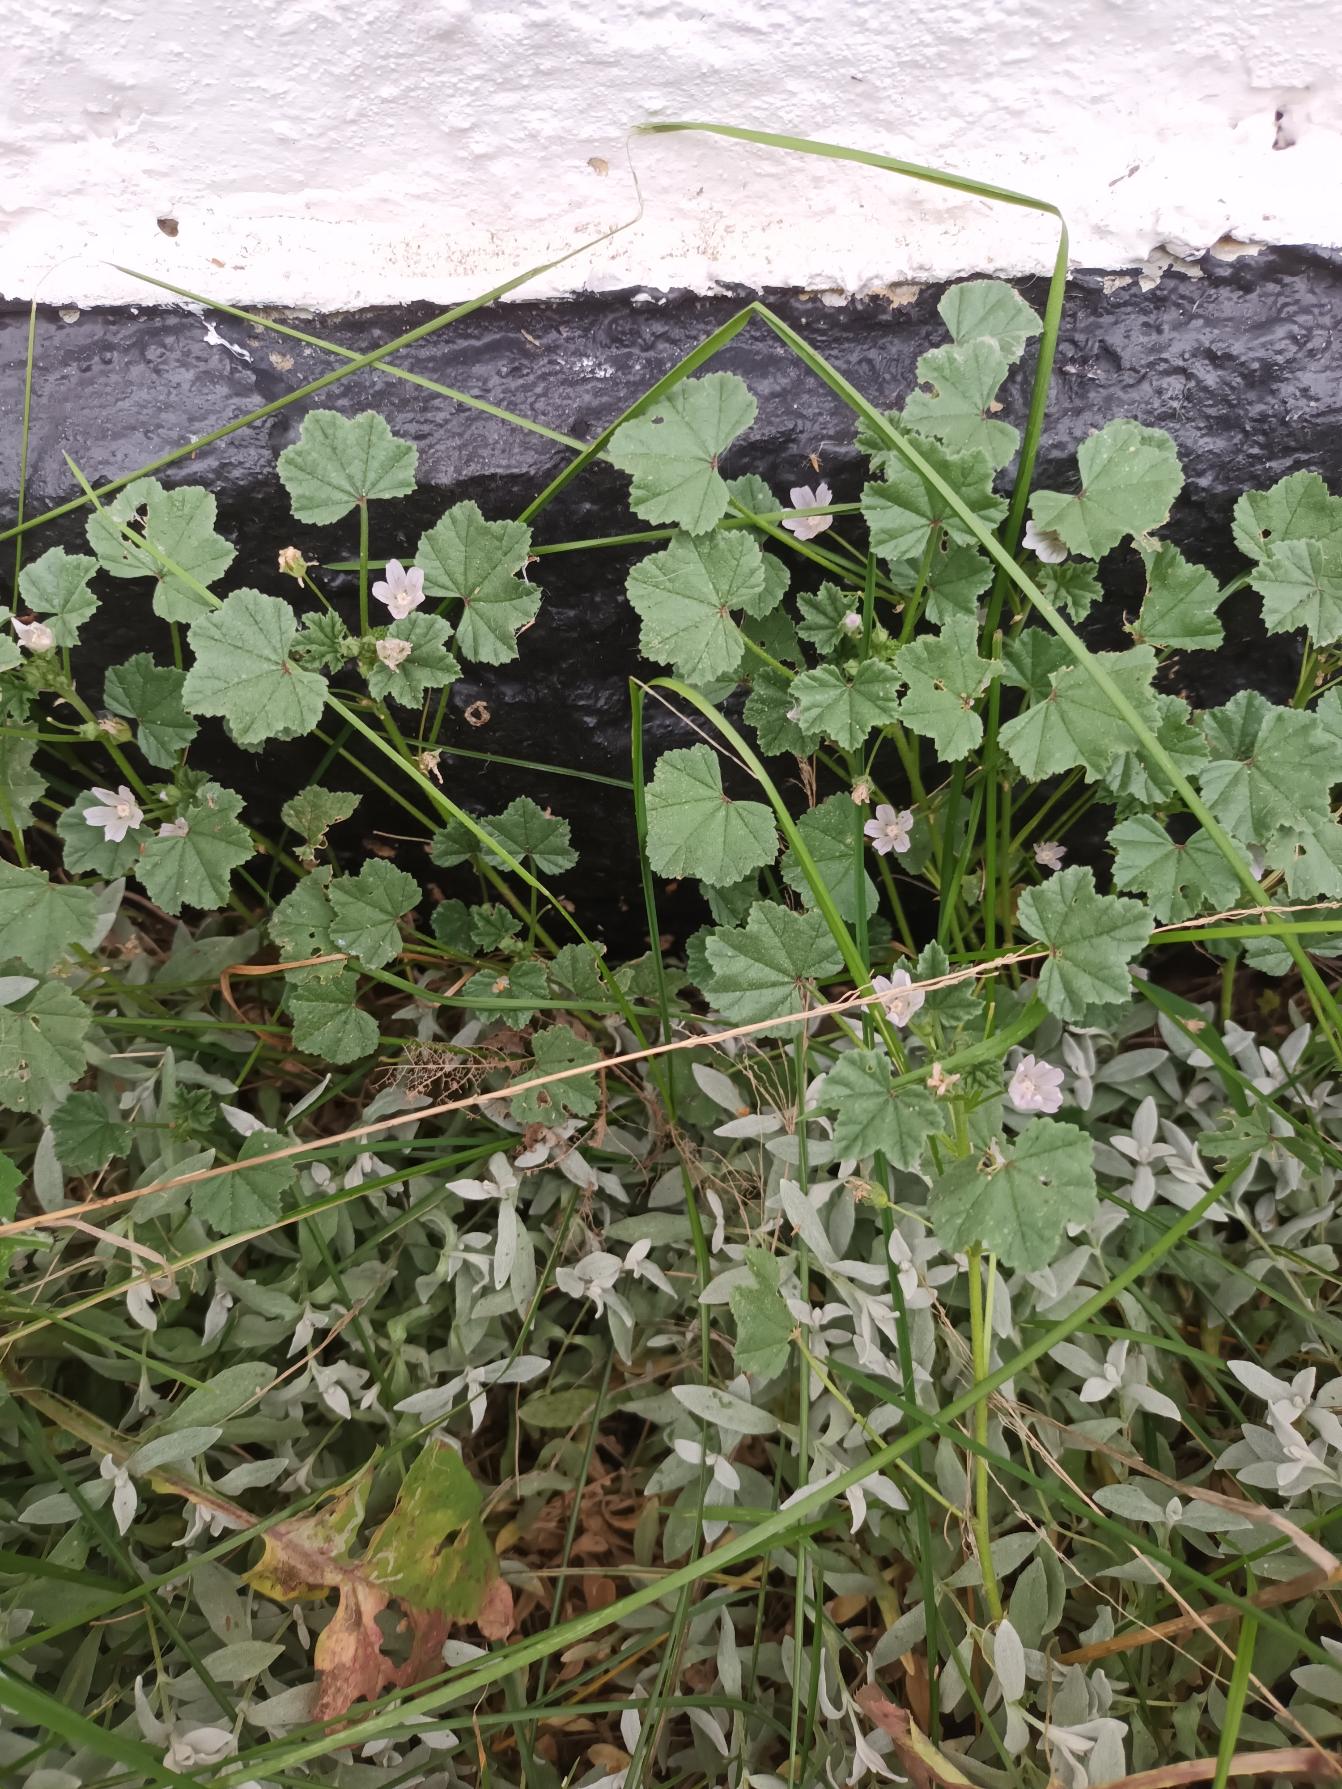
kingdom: Plantae
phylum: Tracheophyta
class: Magnoliopsida
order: Malvales
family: Malvaceae
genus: Malva
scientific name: Malva neglecta
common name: Rundbladet katost
